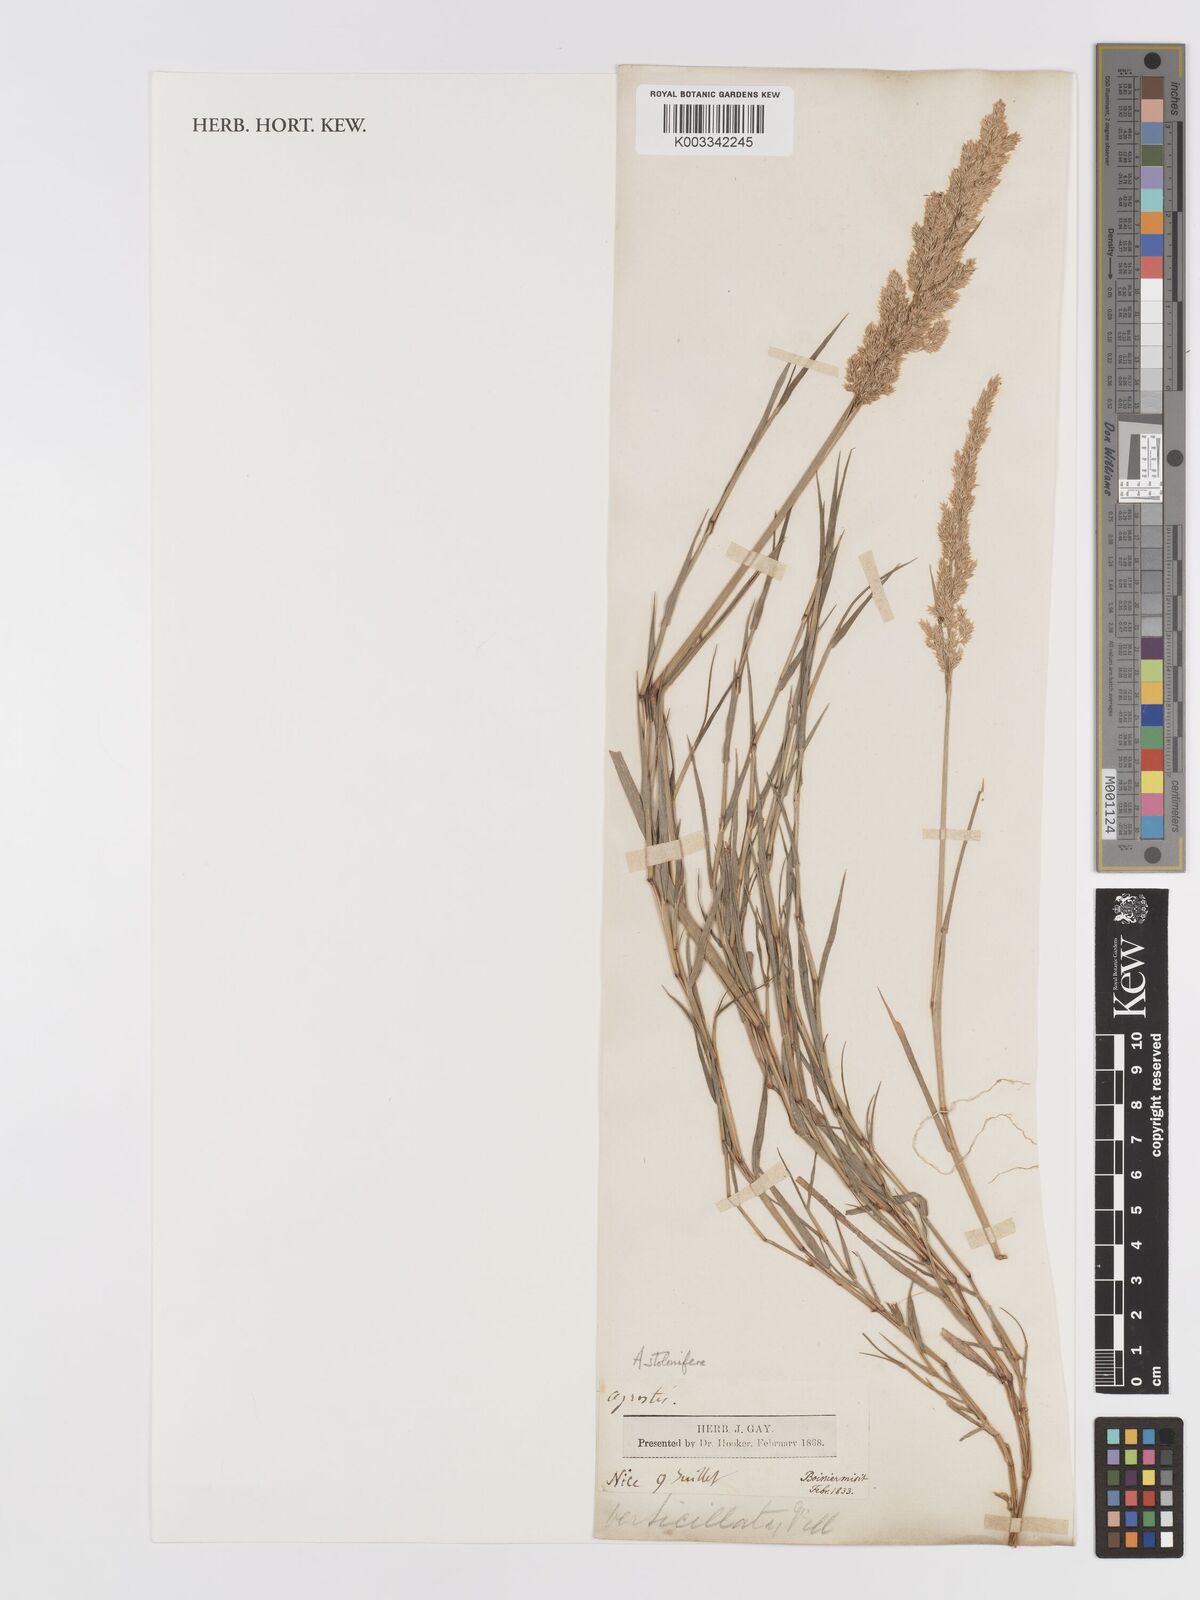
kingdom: Plantae
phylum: Tracheophyta
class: Liliopsida
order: Poales
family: Poaceae
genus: Agrostis
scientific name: Agrostis stolonifera
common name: Creeping bentgrass
